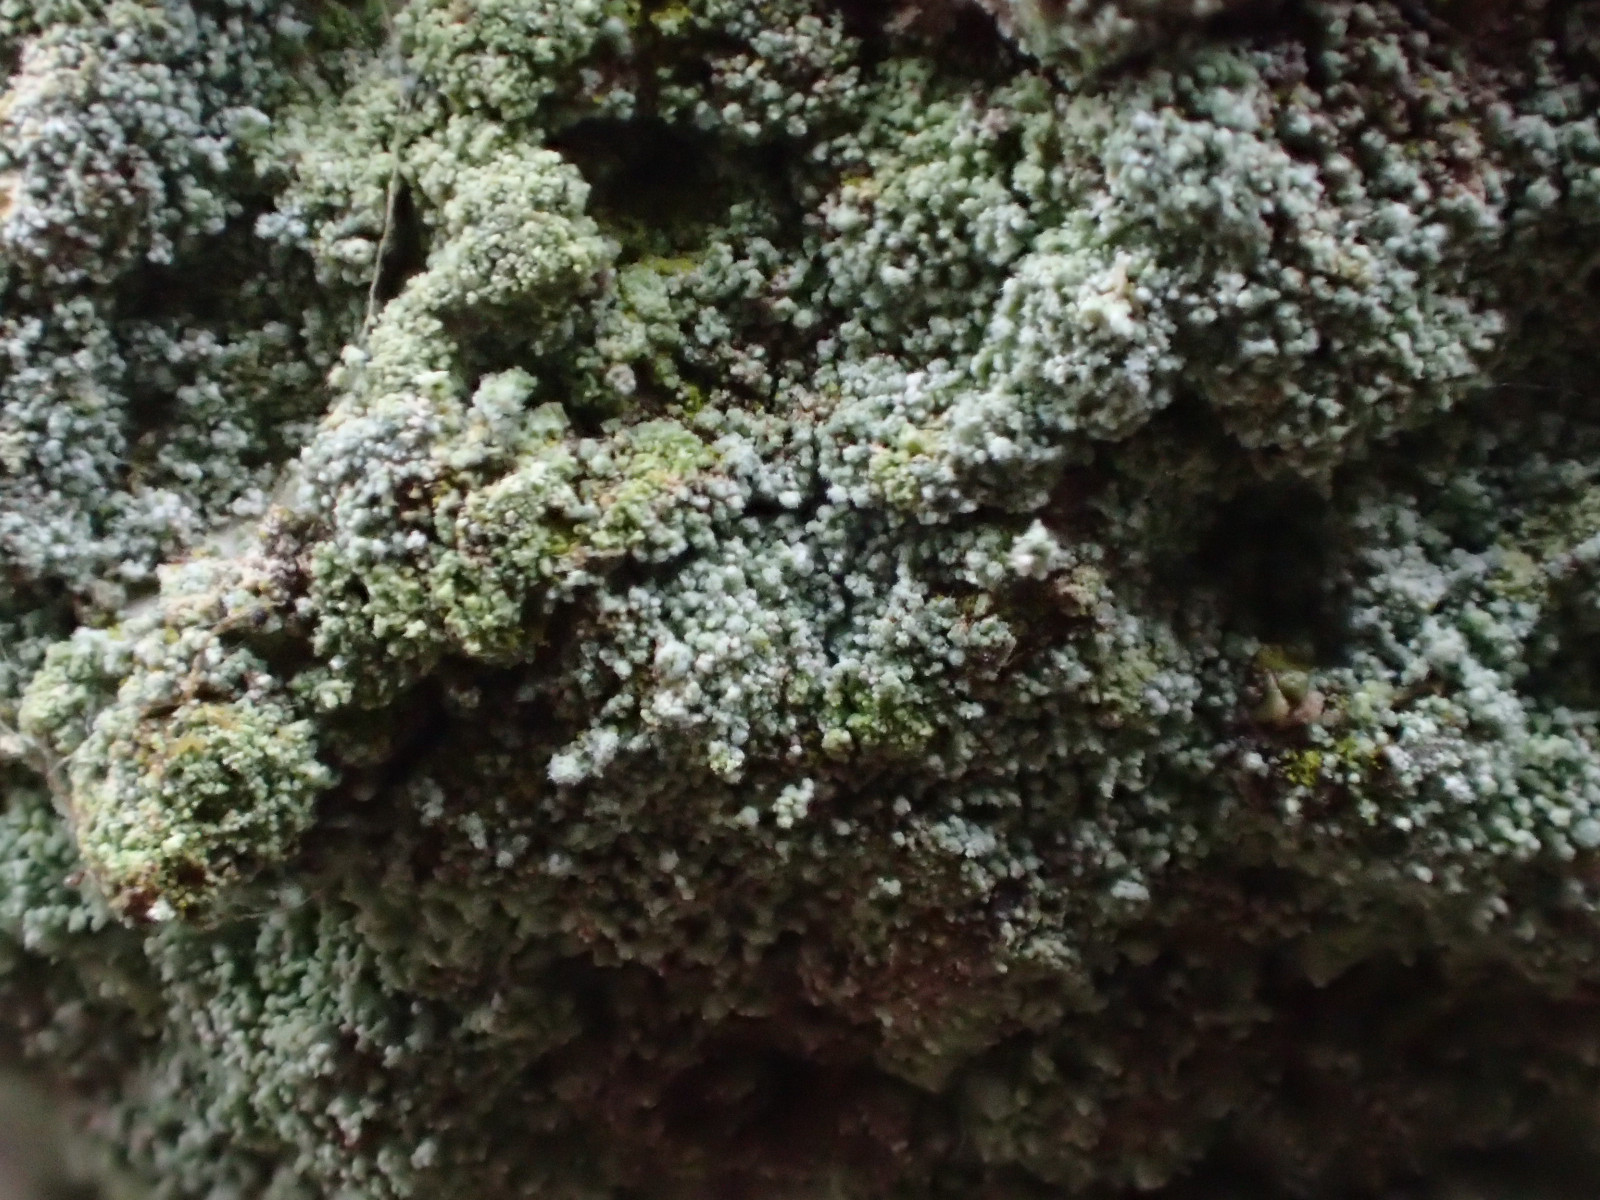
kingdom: Fungi
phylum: Ascomycota
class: Lecanoromycetes
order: Lecanorales
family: Stereocaulaceae
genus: Lepraria
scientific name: Lepraria incana
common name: almindelig støvlav
